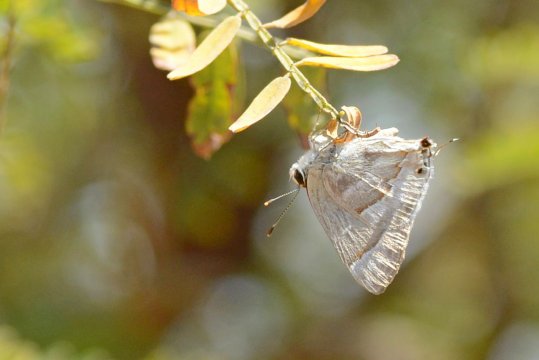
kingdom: Animalia
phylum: Arthropoda
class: Insecta
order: Lepidoptera
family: Lycaenidae
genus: Thecla
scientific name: Thecla yojoa
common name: Yojoa Scrub-Hairstreak
